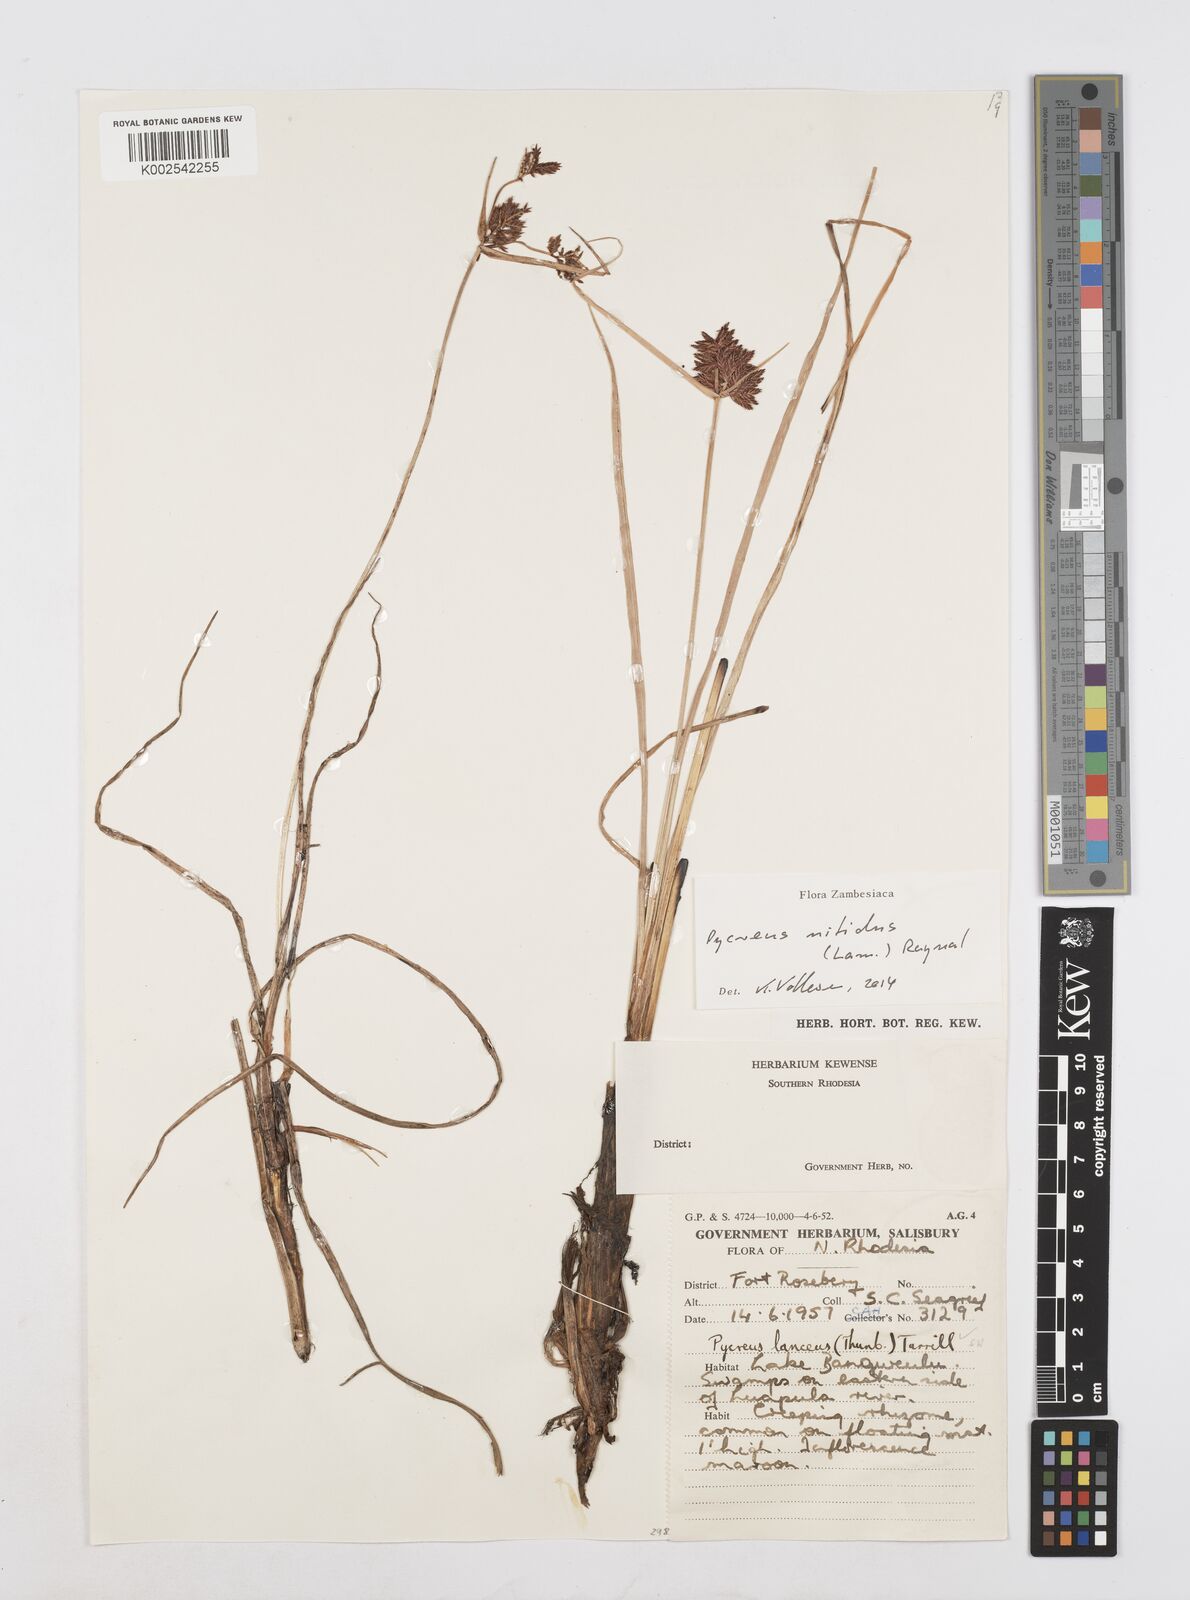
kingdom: Plantae
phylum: Tracheophyta
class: Liliopsida
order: Poales
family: Cyperaceae
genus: Cyperus
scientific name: Cyperus nitidus
